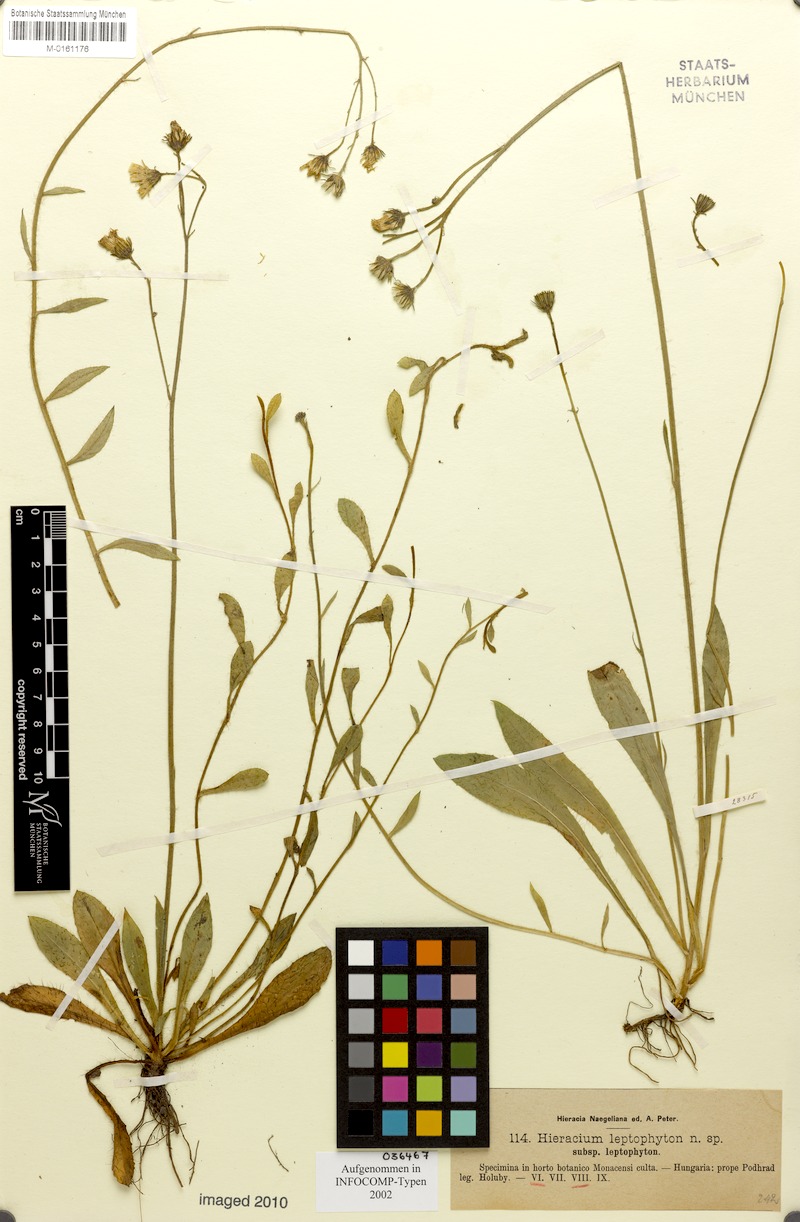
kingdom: Plantae
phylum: Tracheophyta
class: Magnoliopsida
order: Asterales
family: Asteraceae
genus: Pilosella
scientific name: Pilosella leptophyton
